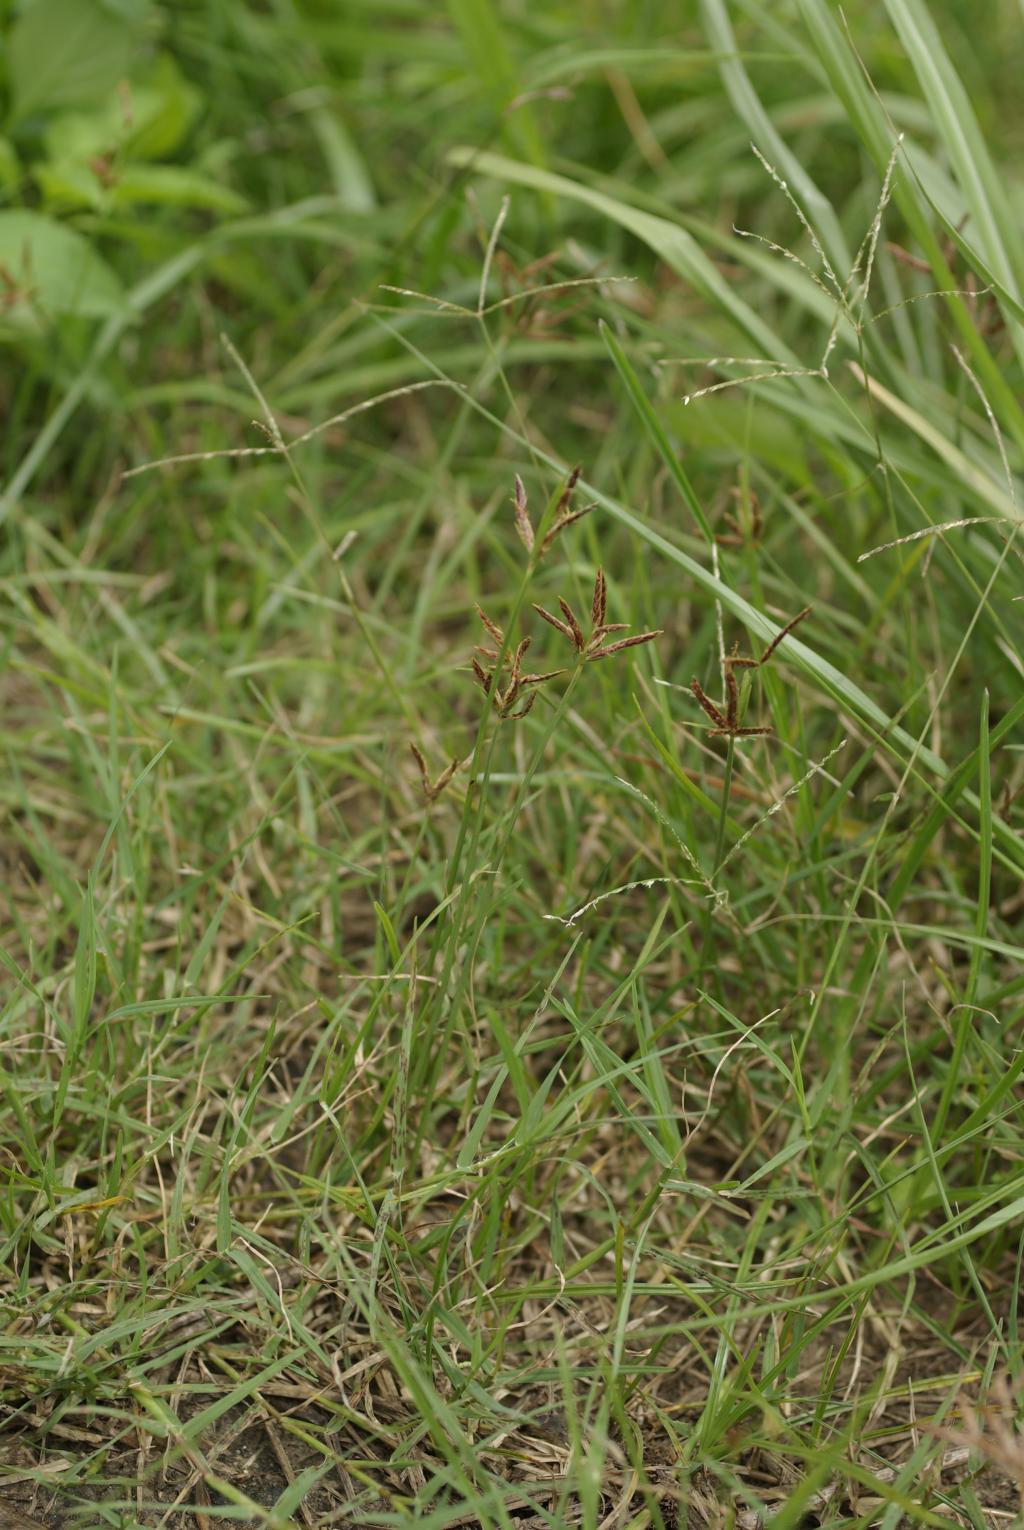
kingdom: Plantae
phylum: Tracheophyta
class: Liliopsida
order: Poales
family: Cyperaceae
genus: Cyperus
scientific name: Cyperus rotundus
